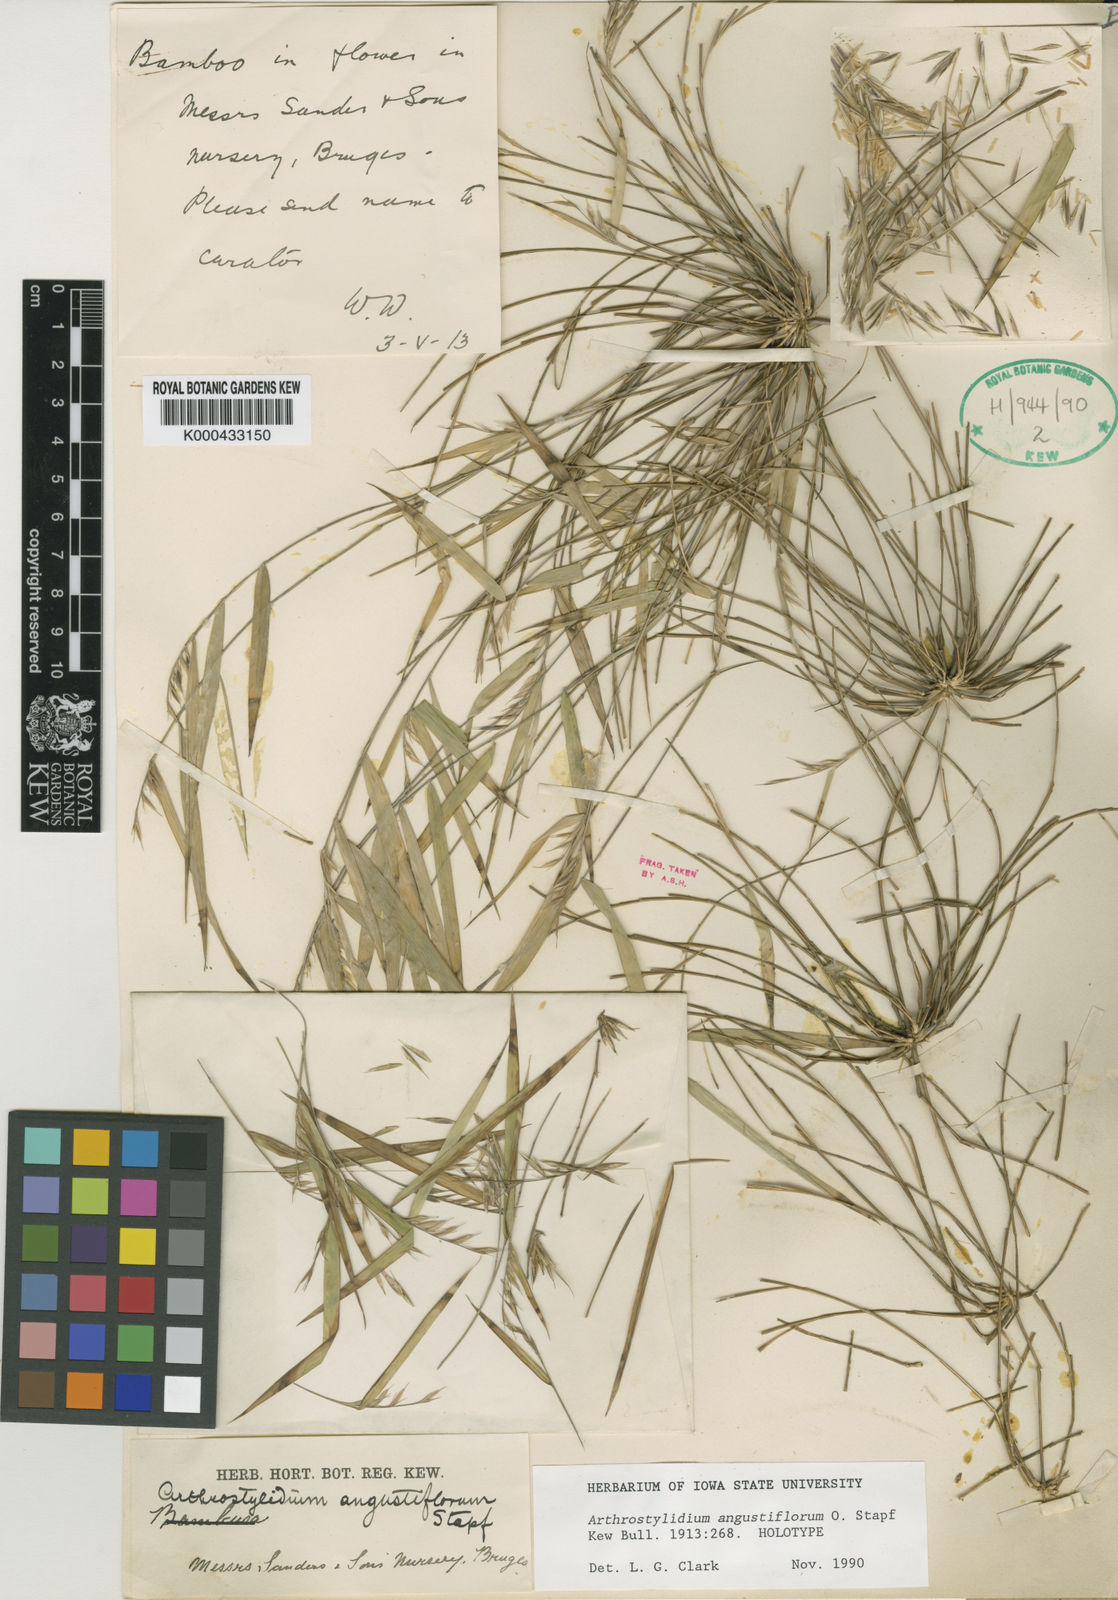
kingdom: Plantae
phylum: Tracheophyta
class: Liliopsida
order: Poales
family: Poaceae
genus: Rhipidocladum
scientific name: Rhipidocladum parviflorum
